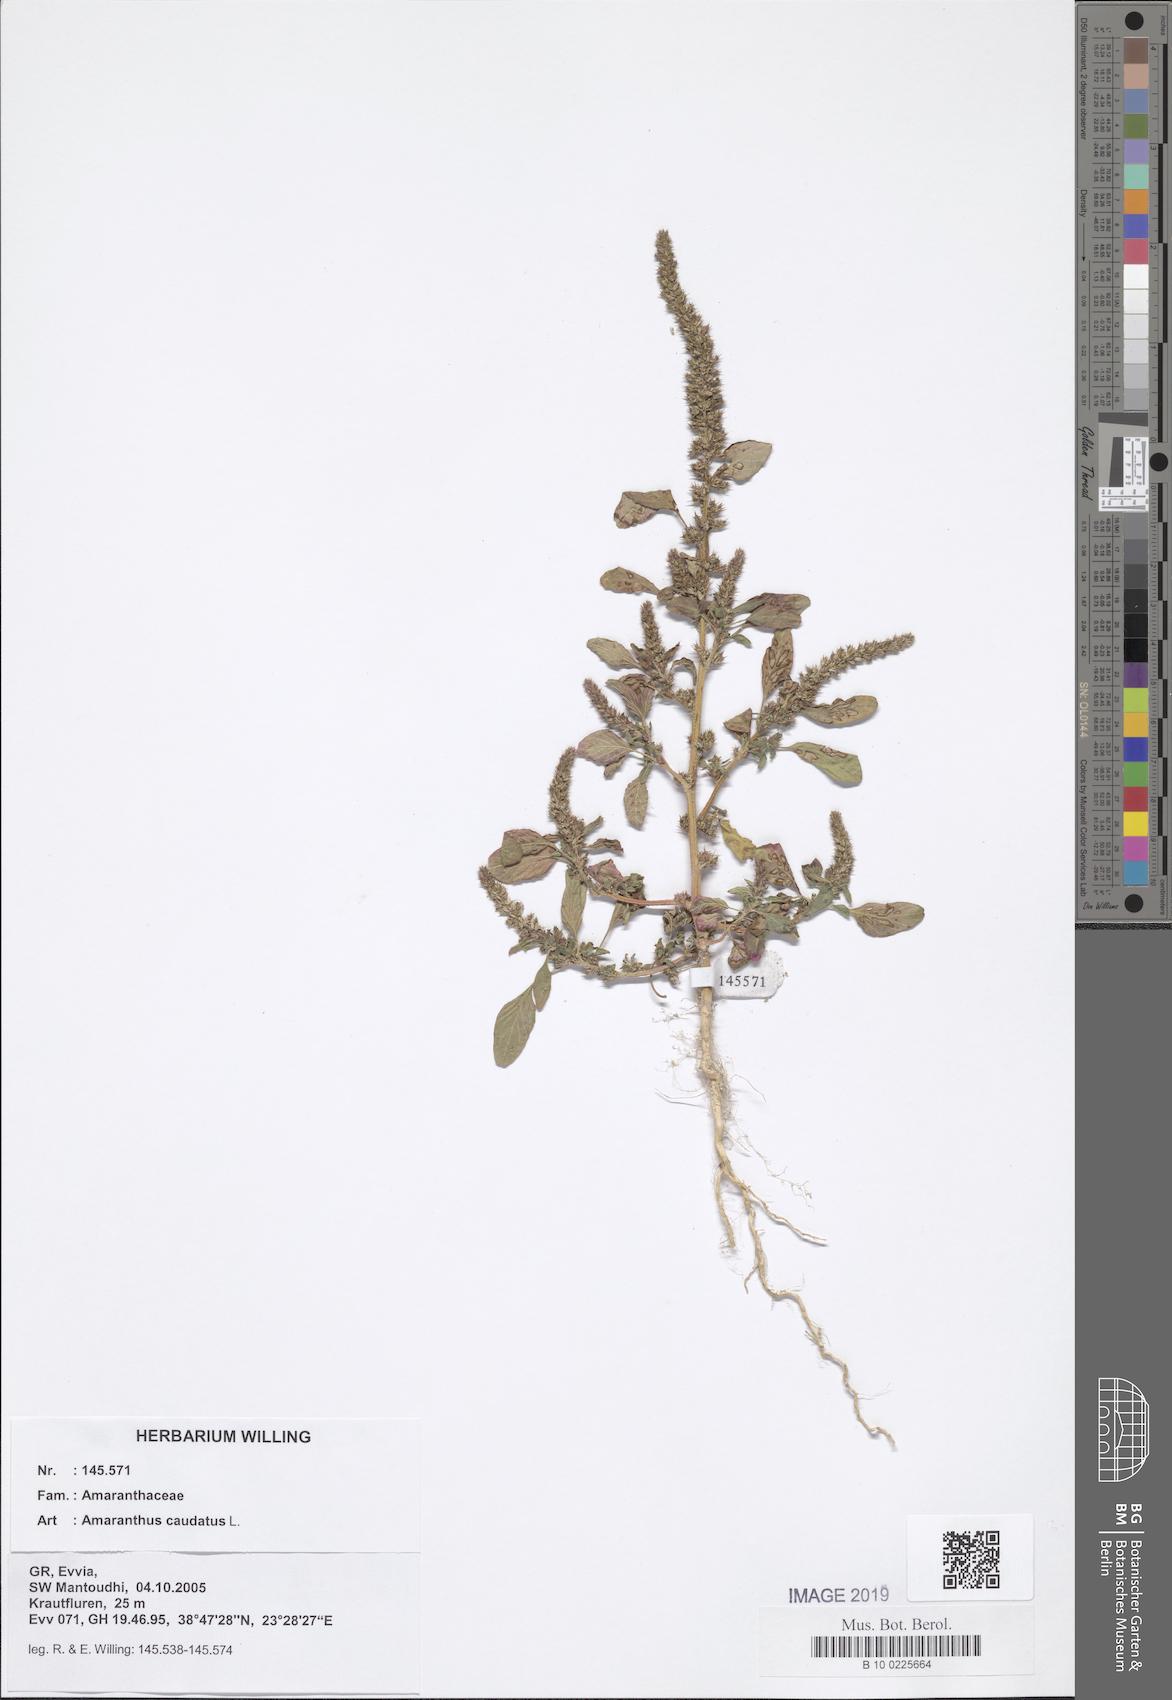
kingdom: Plantae
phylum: Tracheophyta
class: Magnoliopsida
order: Caryophyllales
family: Amaranthaceae
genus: Amaranthus
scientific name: Amaranthus caudatus
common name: Love-lies-bleeding
